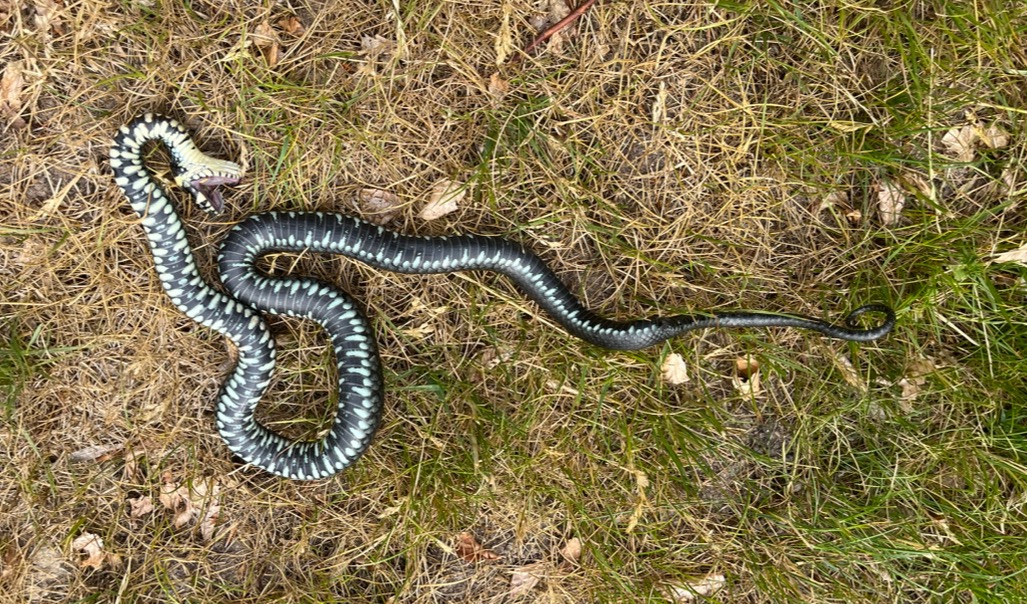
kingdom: Animalia
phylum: Chordata
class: Squamata
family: Colubridae
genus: Natrix
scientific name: Natrix natrix
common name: Snog
